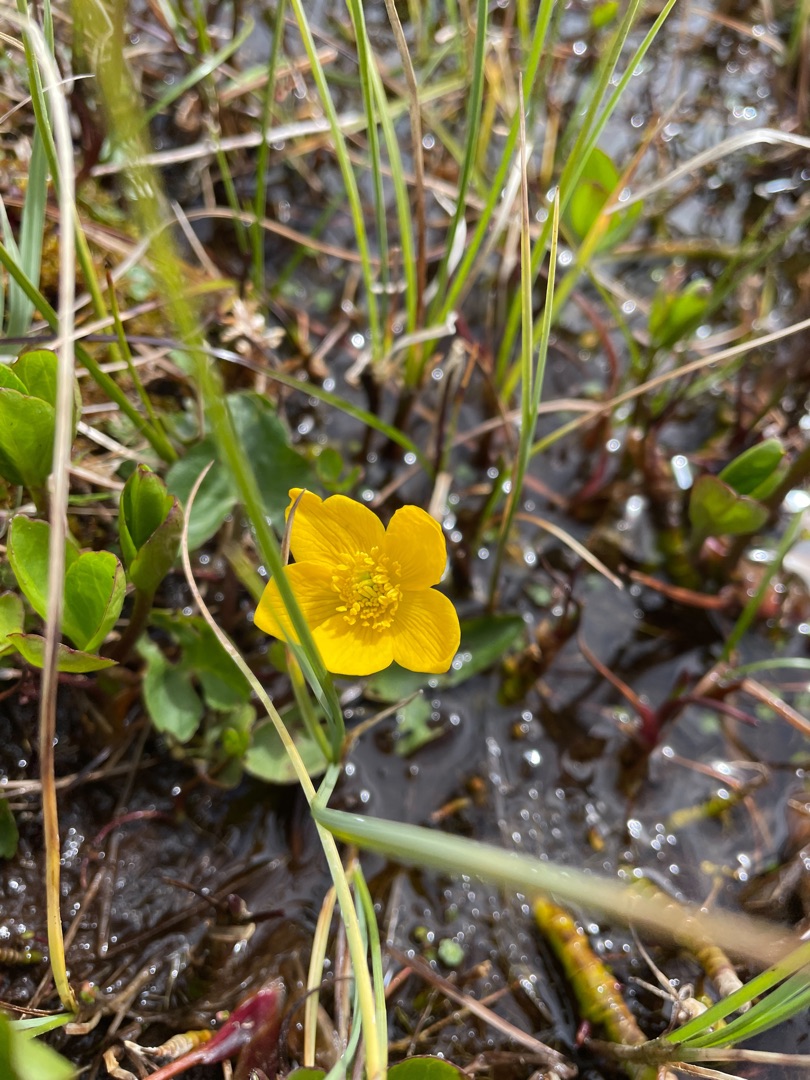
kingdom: Plantae
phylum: Tracheophyta
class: Magnoliopsida
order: Ranunculales
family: Ranunculaceae
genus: Caltha
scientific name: Caltha palustris
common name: Eng-kabbeleje
